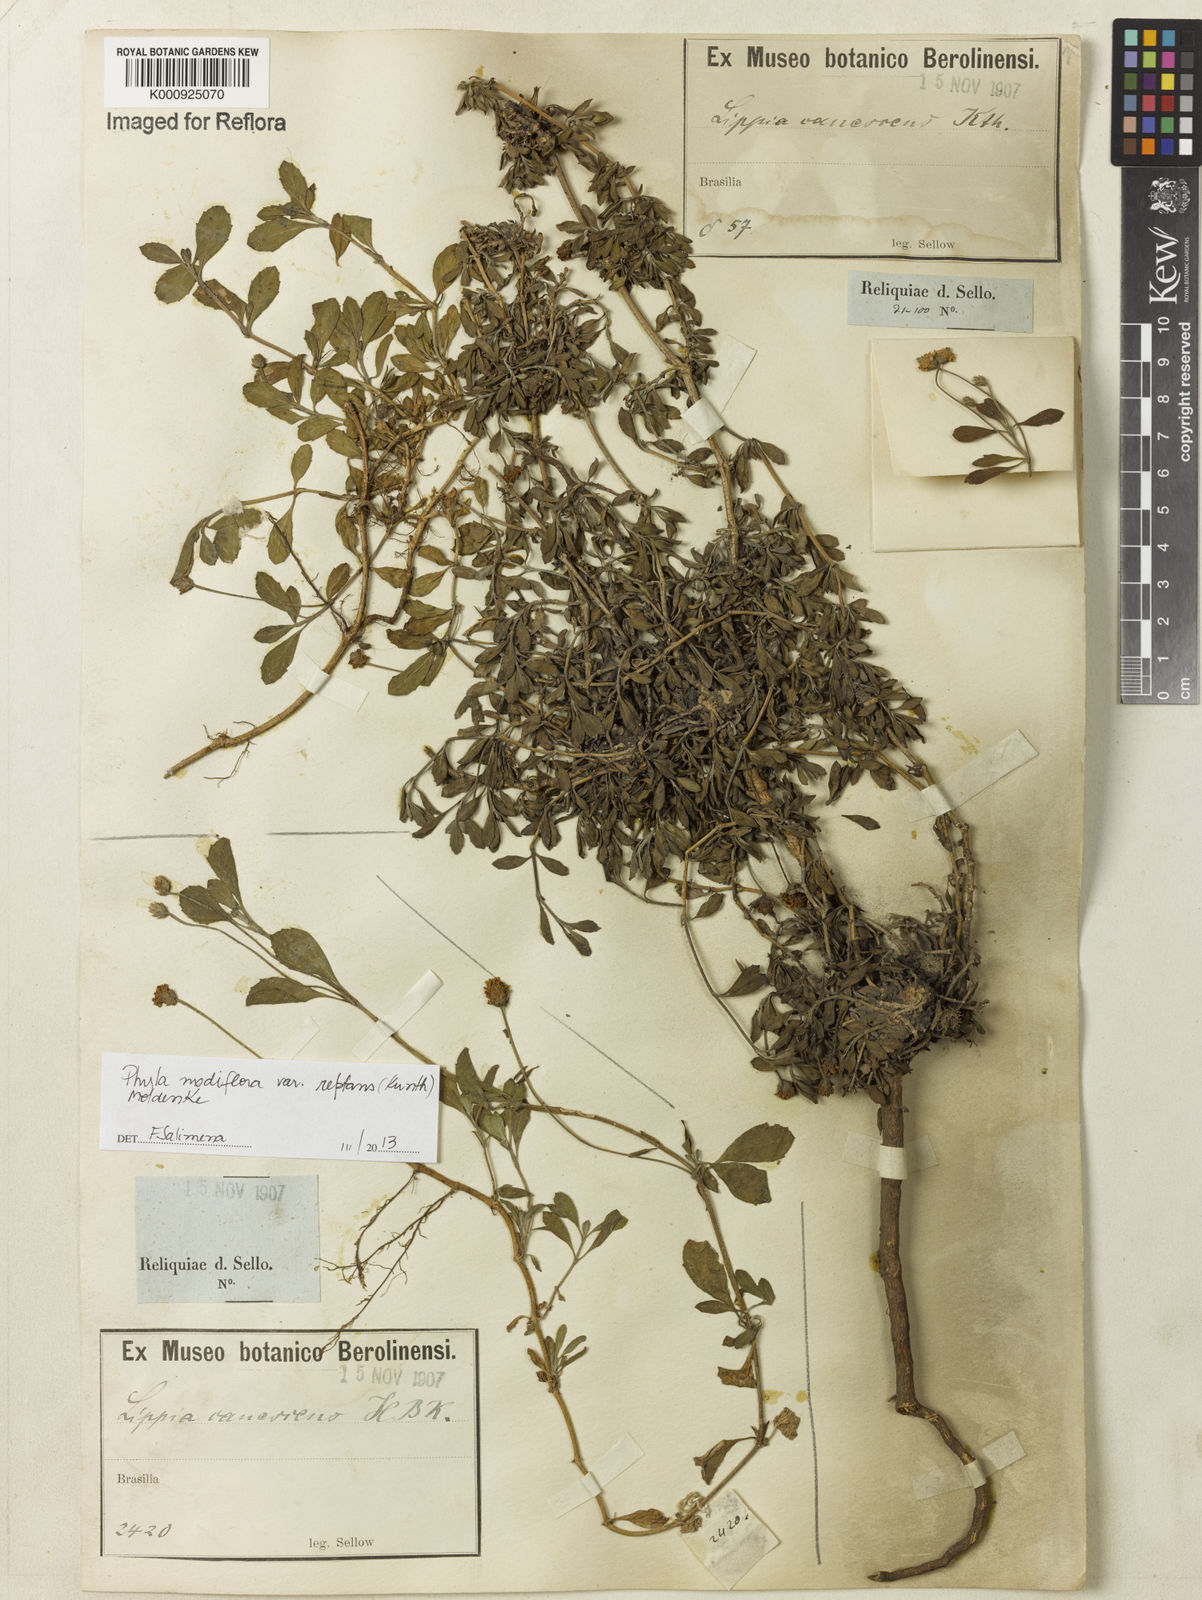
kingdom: Plantae
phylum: Tracheophyta
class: Magnoliopsida
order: Lamiales
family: Verbenaceae
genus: Lippia
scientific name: Lippia
